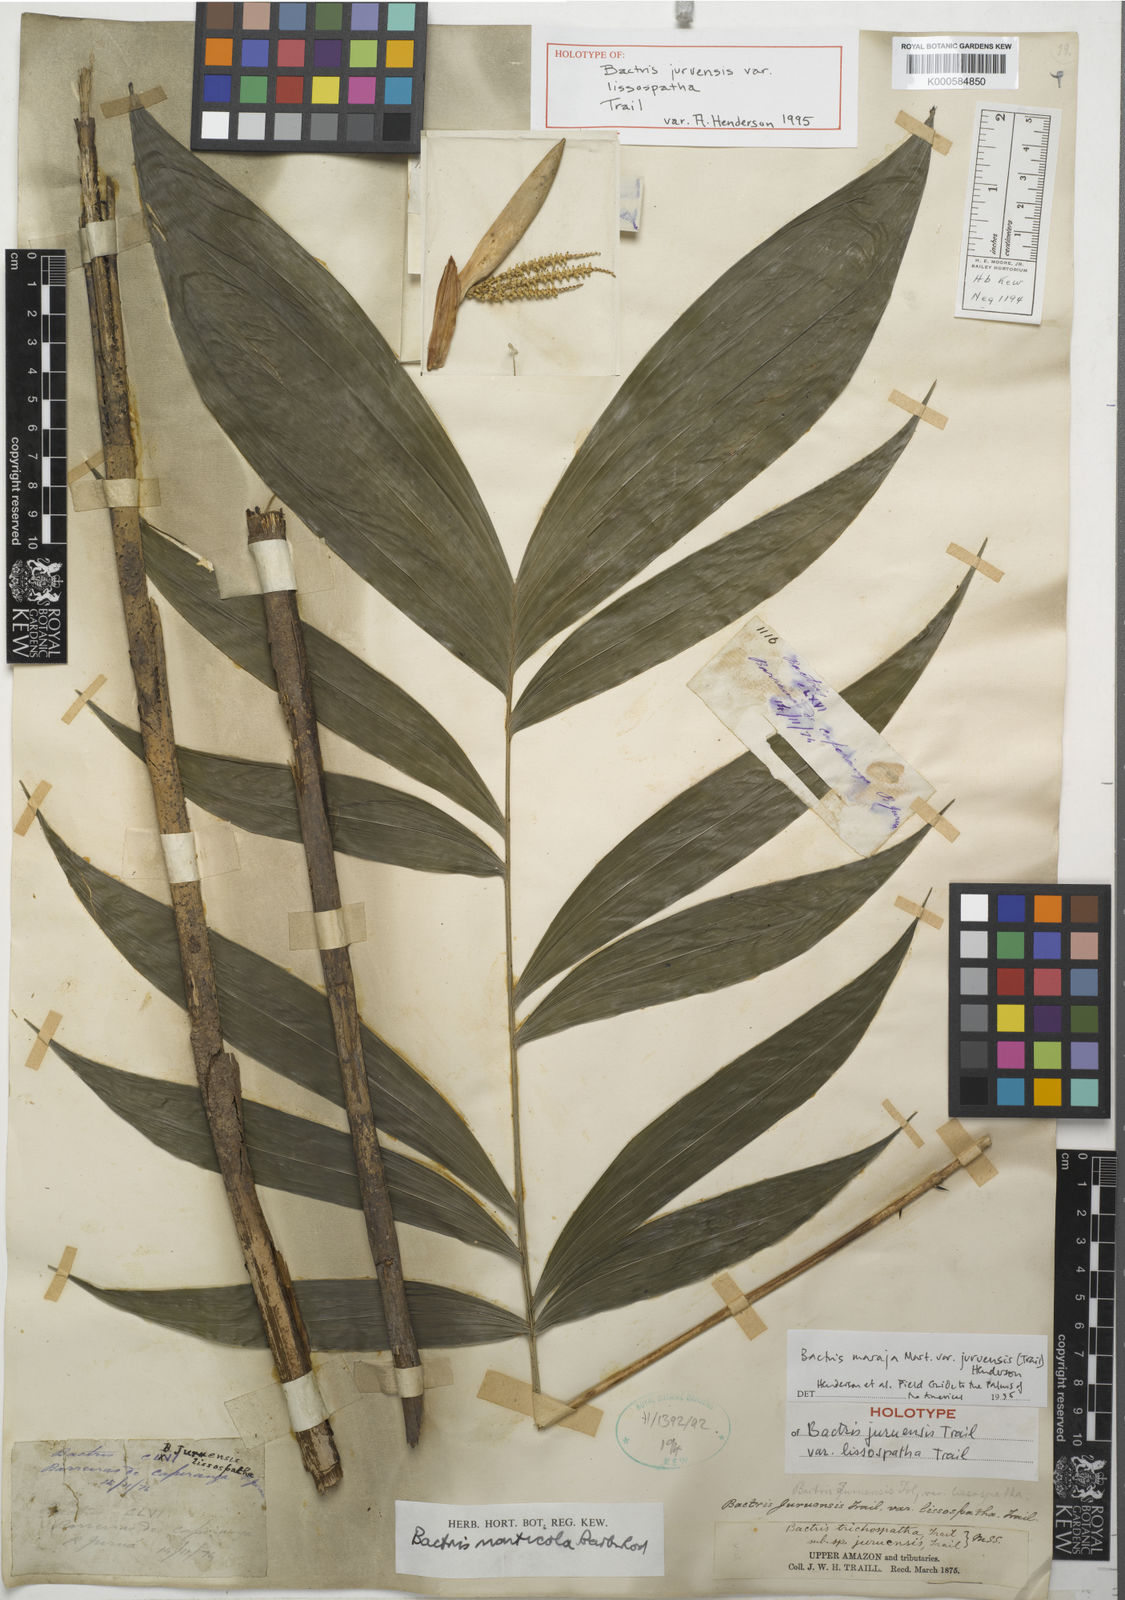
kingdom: Plantae
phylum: Tracheophyta
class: Liliopsida
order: Arecales
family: Arecaceae
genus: Bactris
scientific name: Bactris maraja
